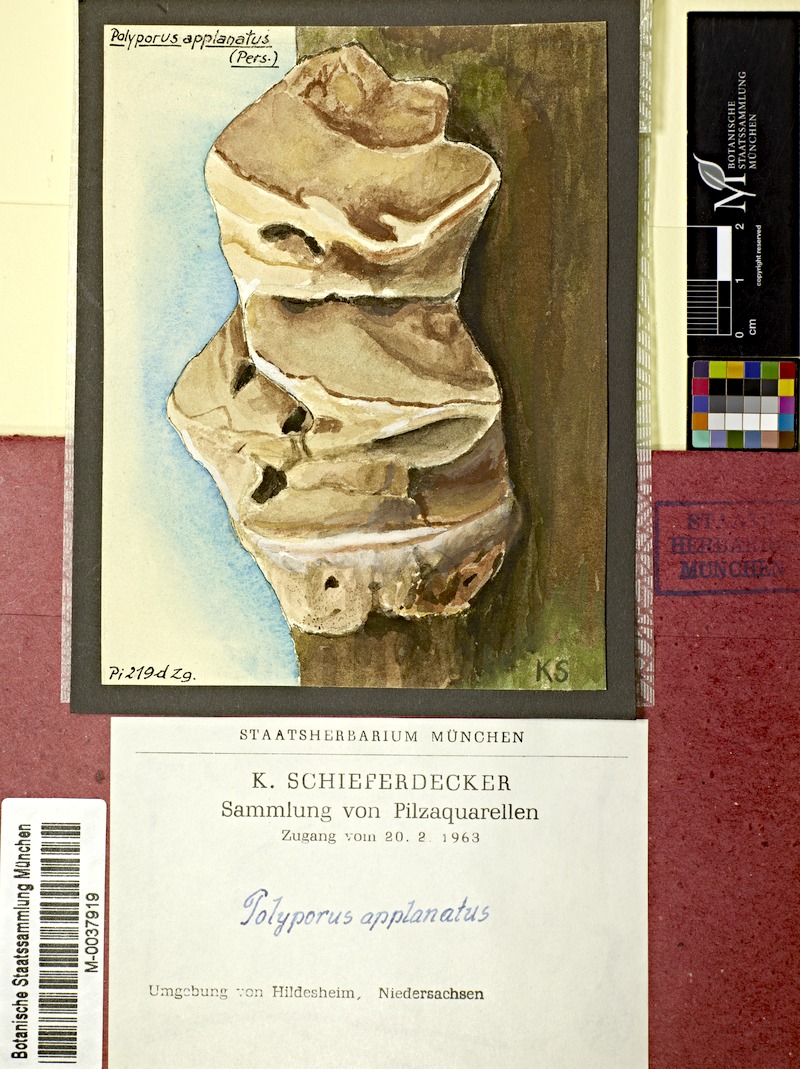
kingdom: Fungi
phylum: Basidiomycota
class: Agaricomycetes
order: Polyporales
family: Polyporaceae
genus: Ganoderma
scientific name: Ganoderma applanatum
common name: Artist's bracket
